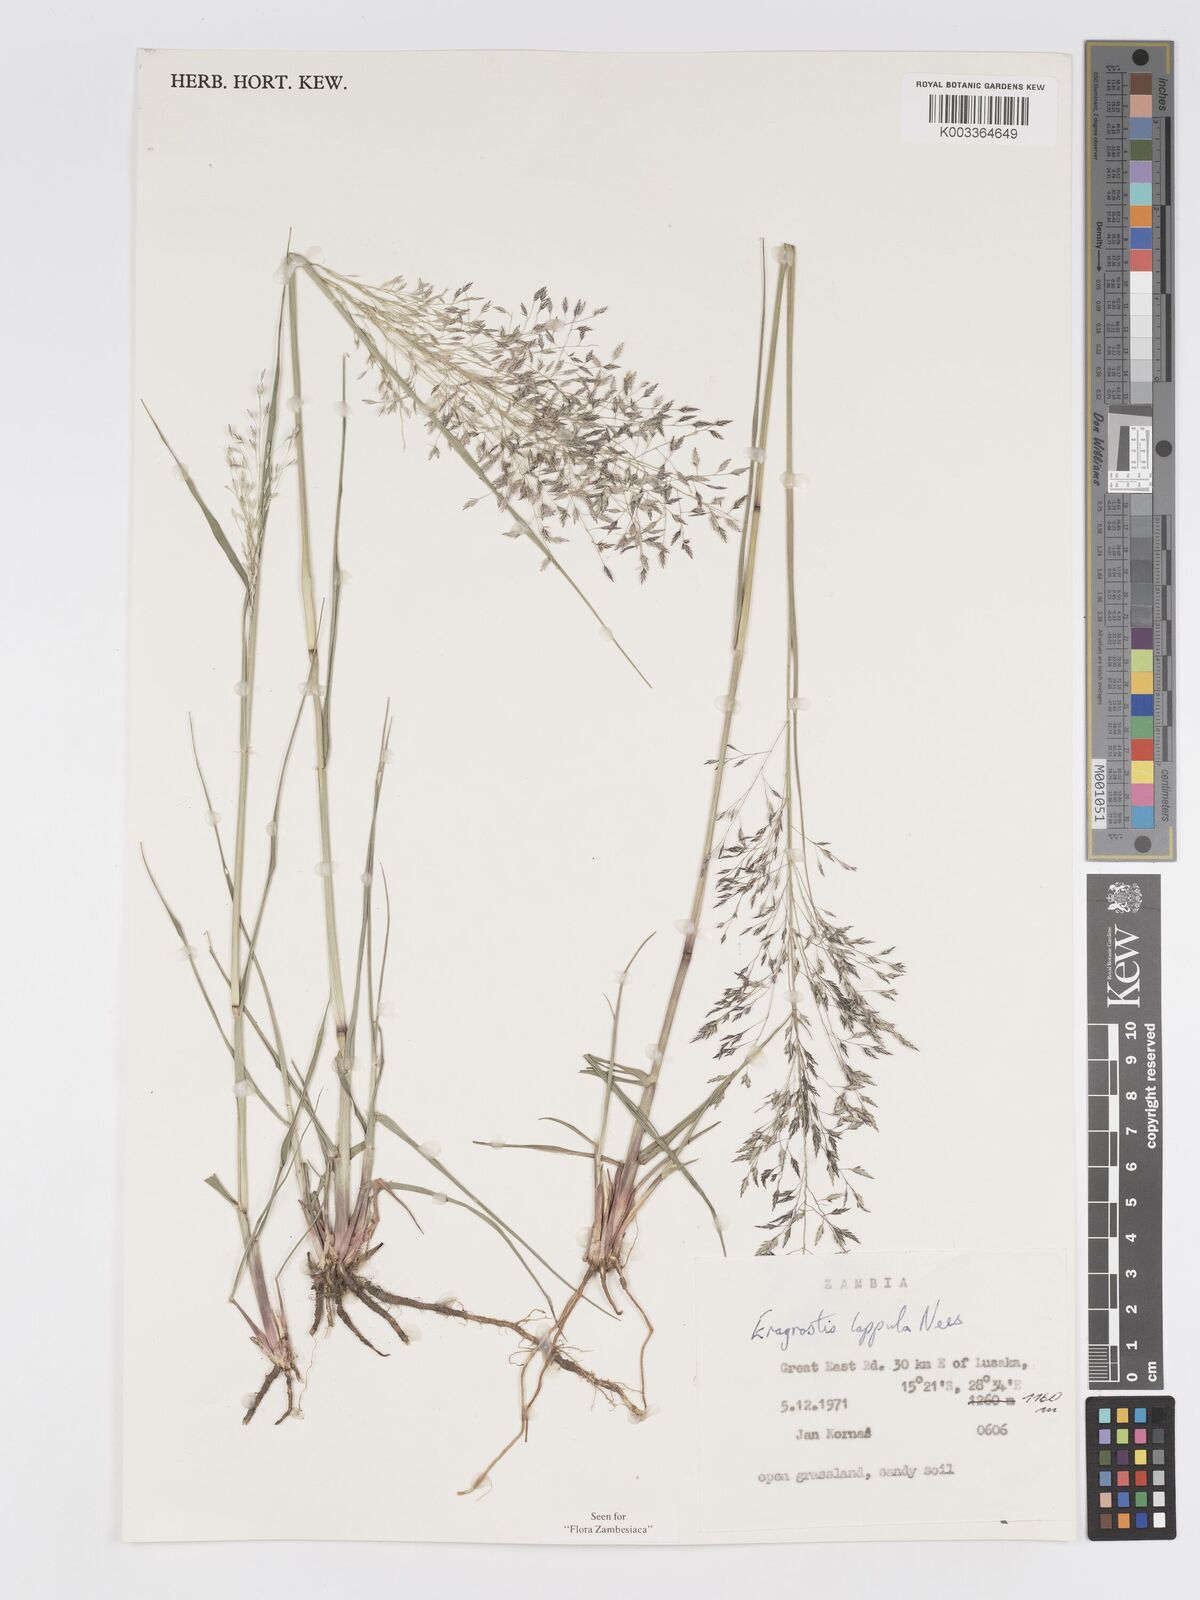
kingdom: Plantae
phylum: Tracheophyta
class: Liliopsida
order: Poales
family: Poaceae
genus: Eragrostis
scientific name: Eragrostis lappula
